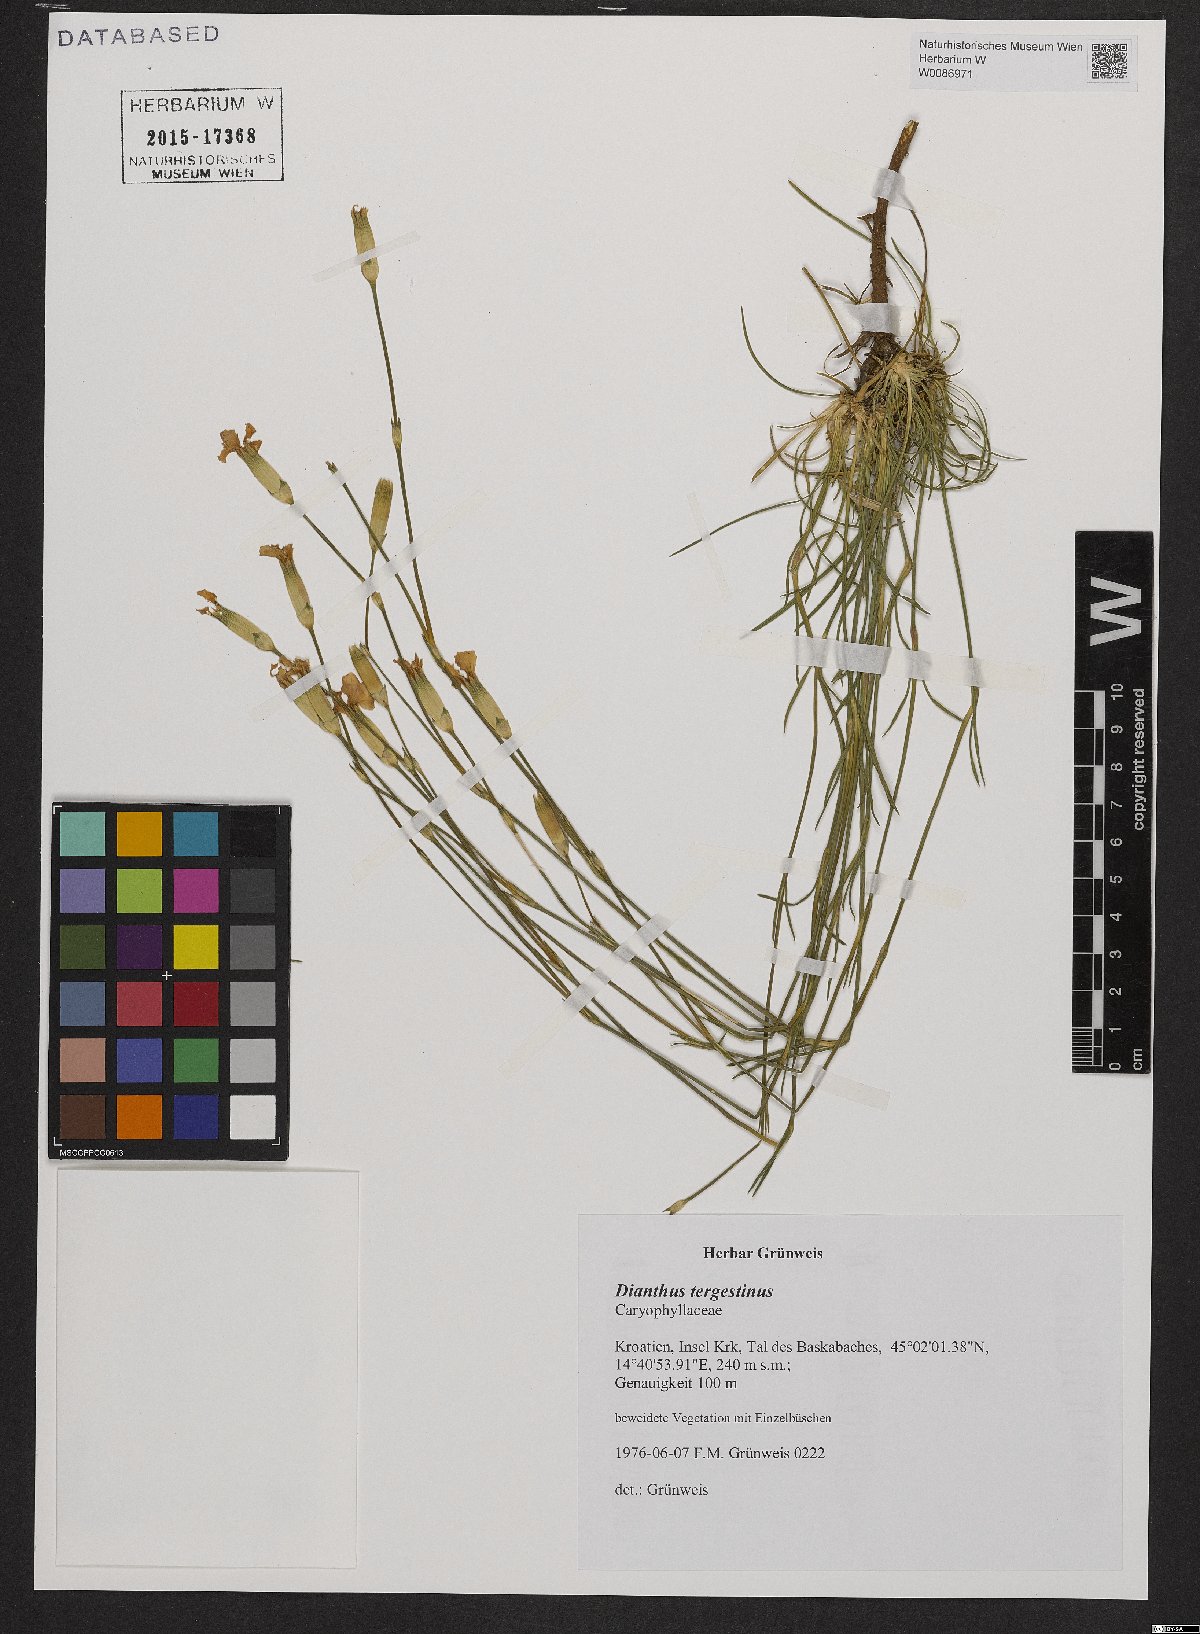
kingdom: Plantae
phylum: Tracheophyta
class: Magnoliopsida
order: Caryophyllales
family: Caryophyllaceae
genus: Dianthus
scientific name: Dianthus sylvestris
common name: Wood pink
